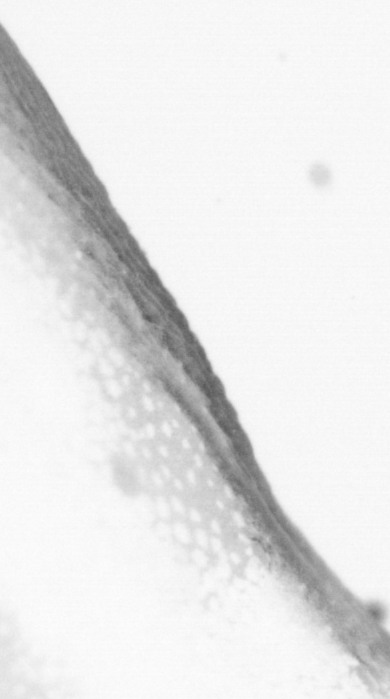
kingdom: Animalia
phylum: Chordata
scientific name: Chordata
